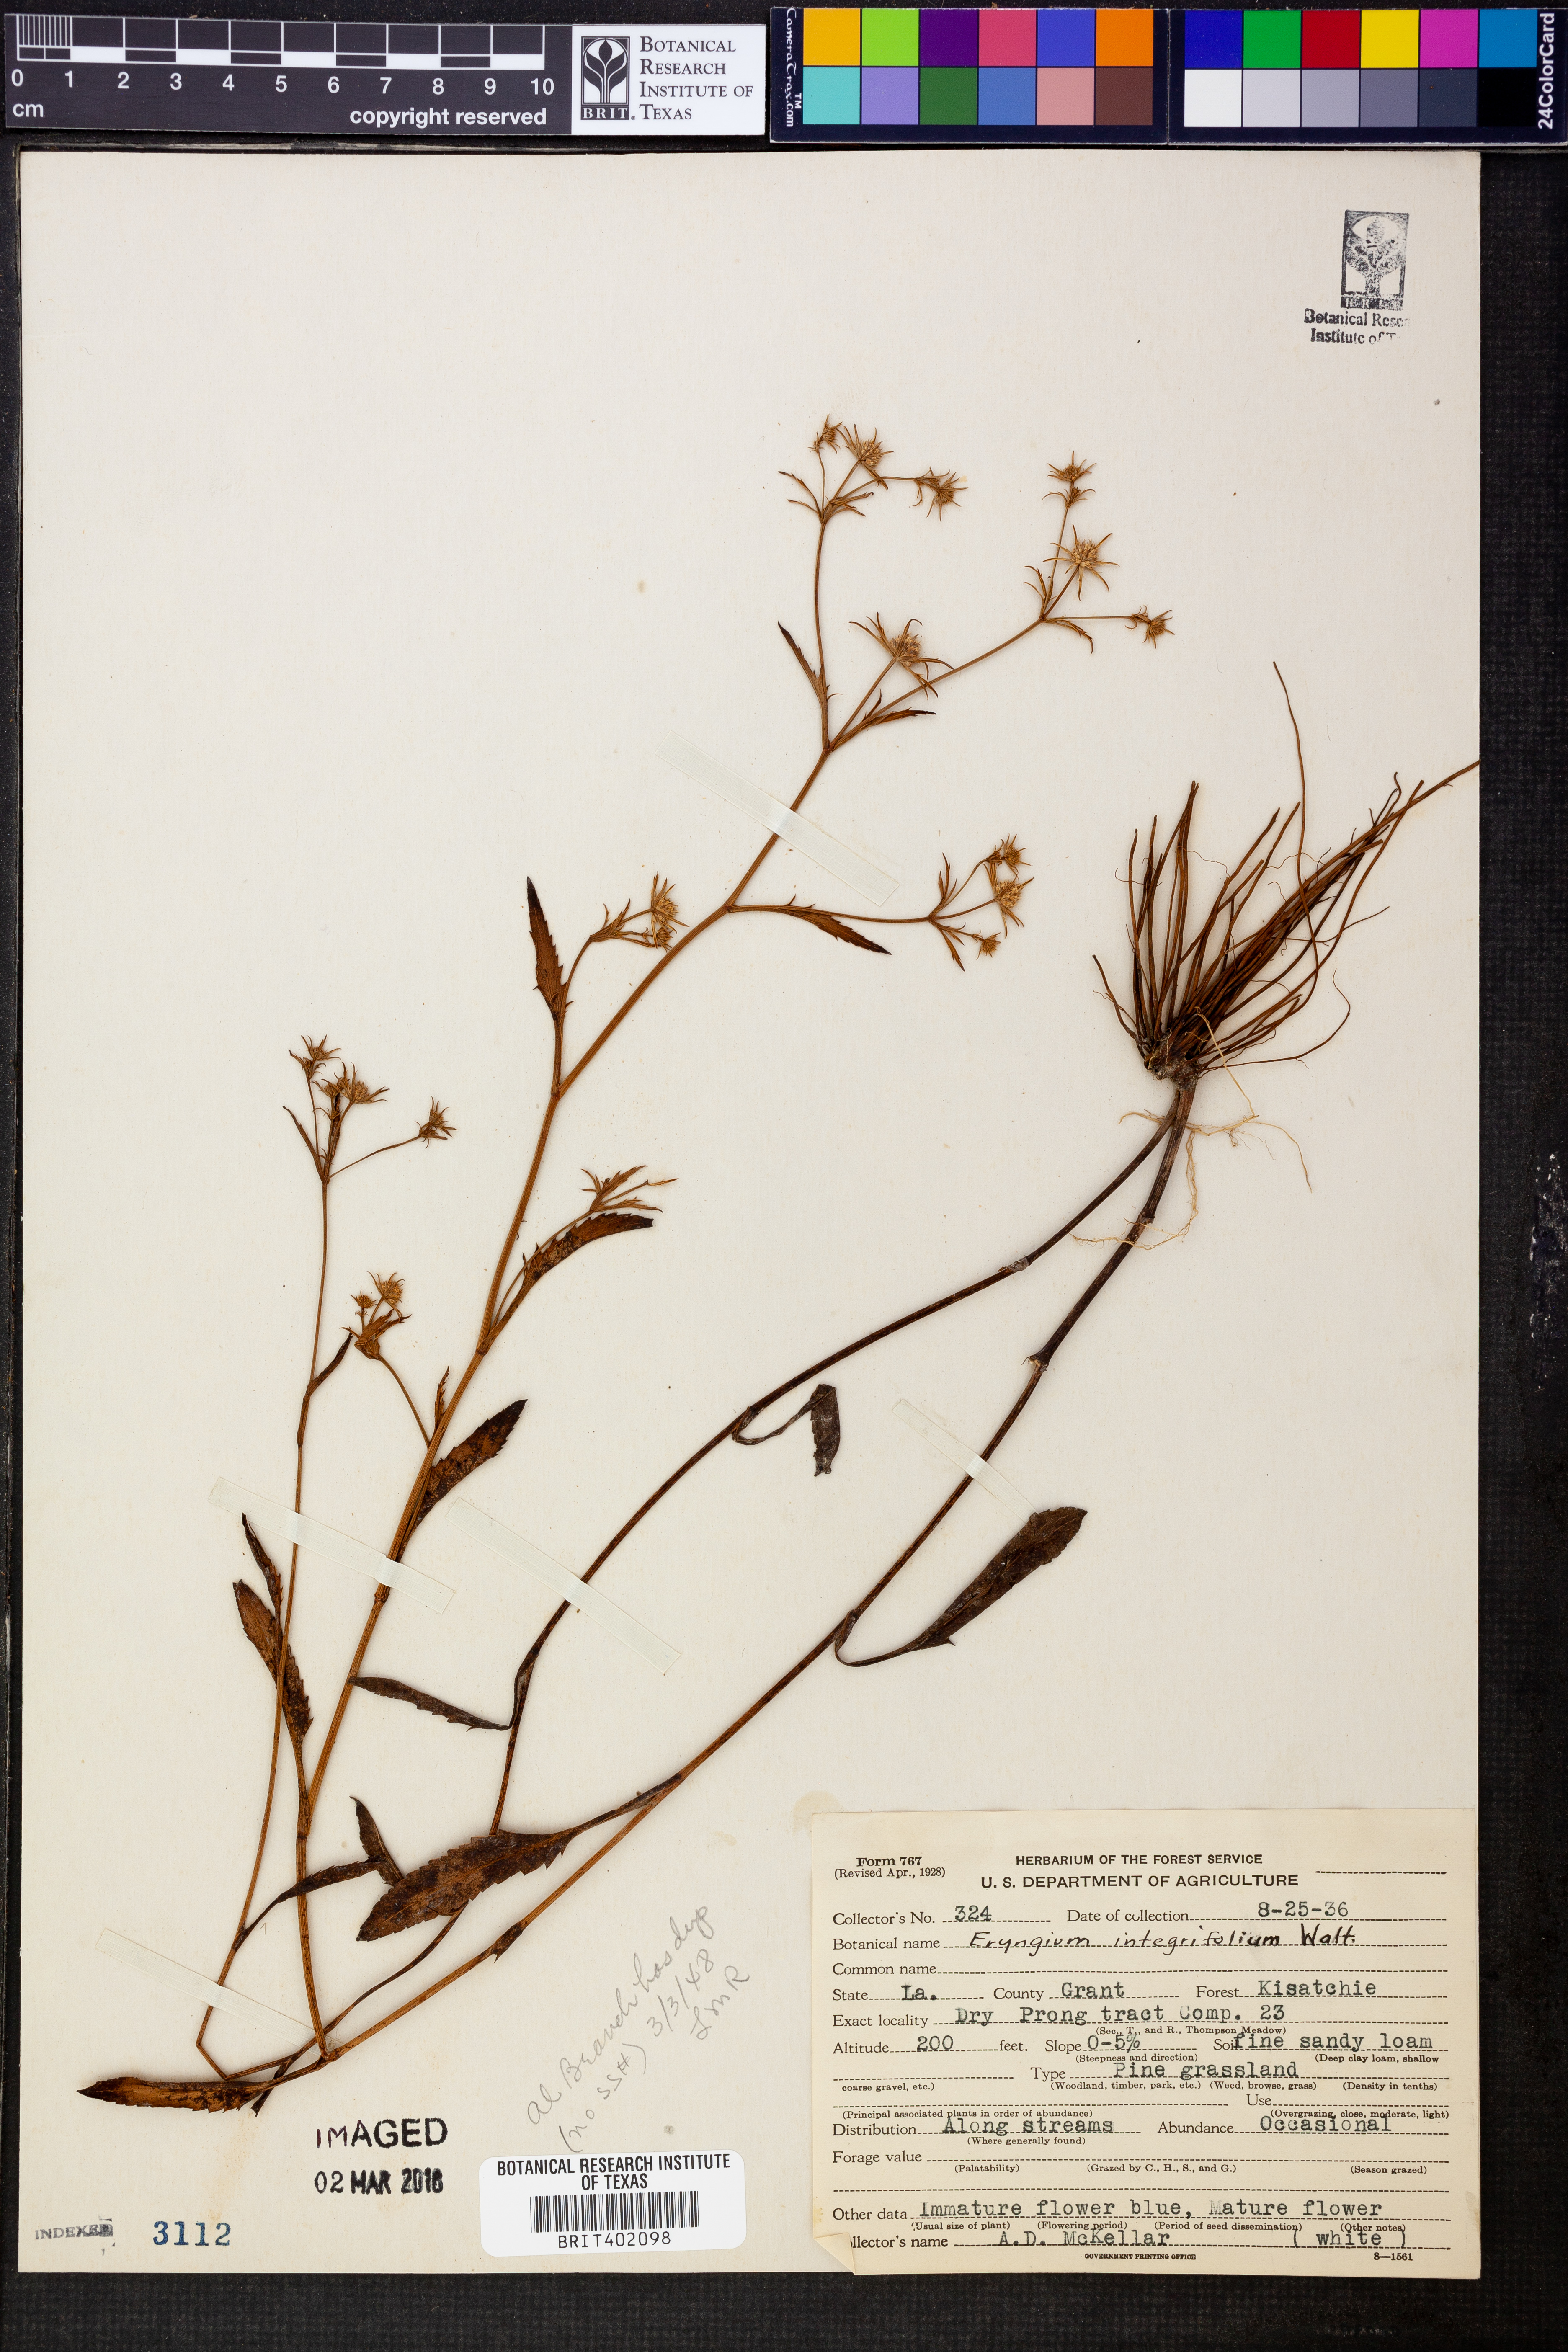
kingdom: Plantae
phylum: Tracheophyta
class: Magnoliopsida
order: Apiales
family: Apiaceae
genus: Eryngium
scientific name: Eryngium integrifolium
